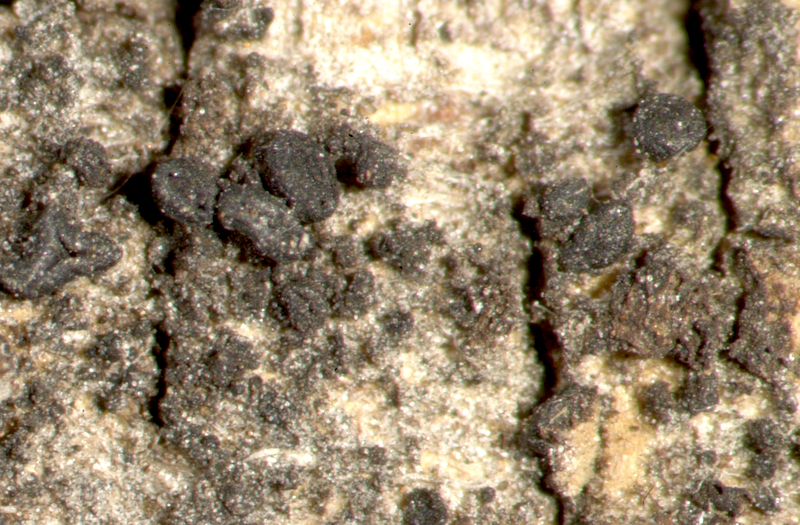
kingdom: Fungi
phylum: Ascomycota
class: Lecanoromycetes
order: Teloschistales
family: Teloschistaceae
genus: Flavoplaca
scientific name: Flavoplaca citrina
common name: Mealy firedot lichen
